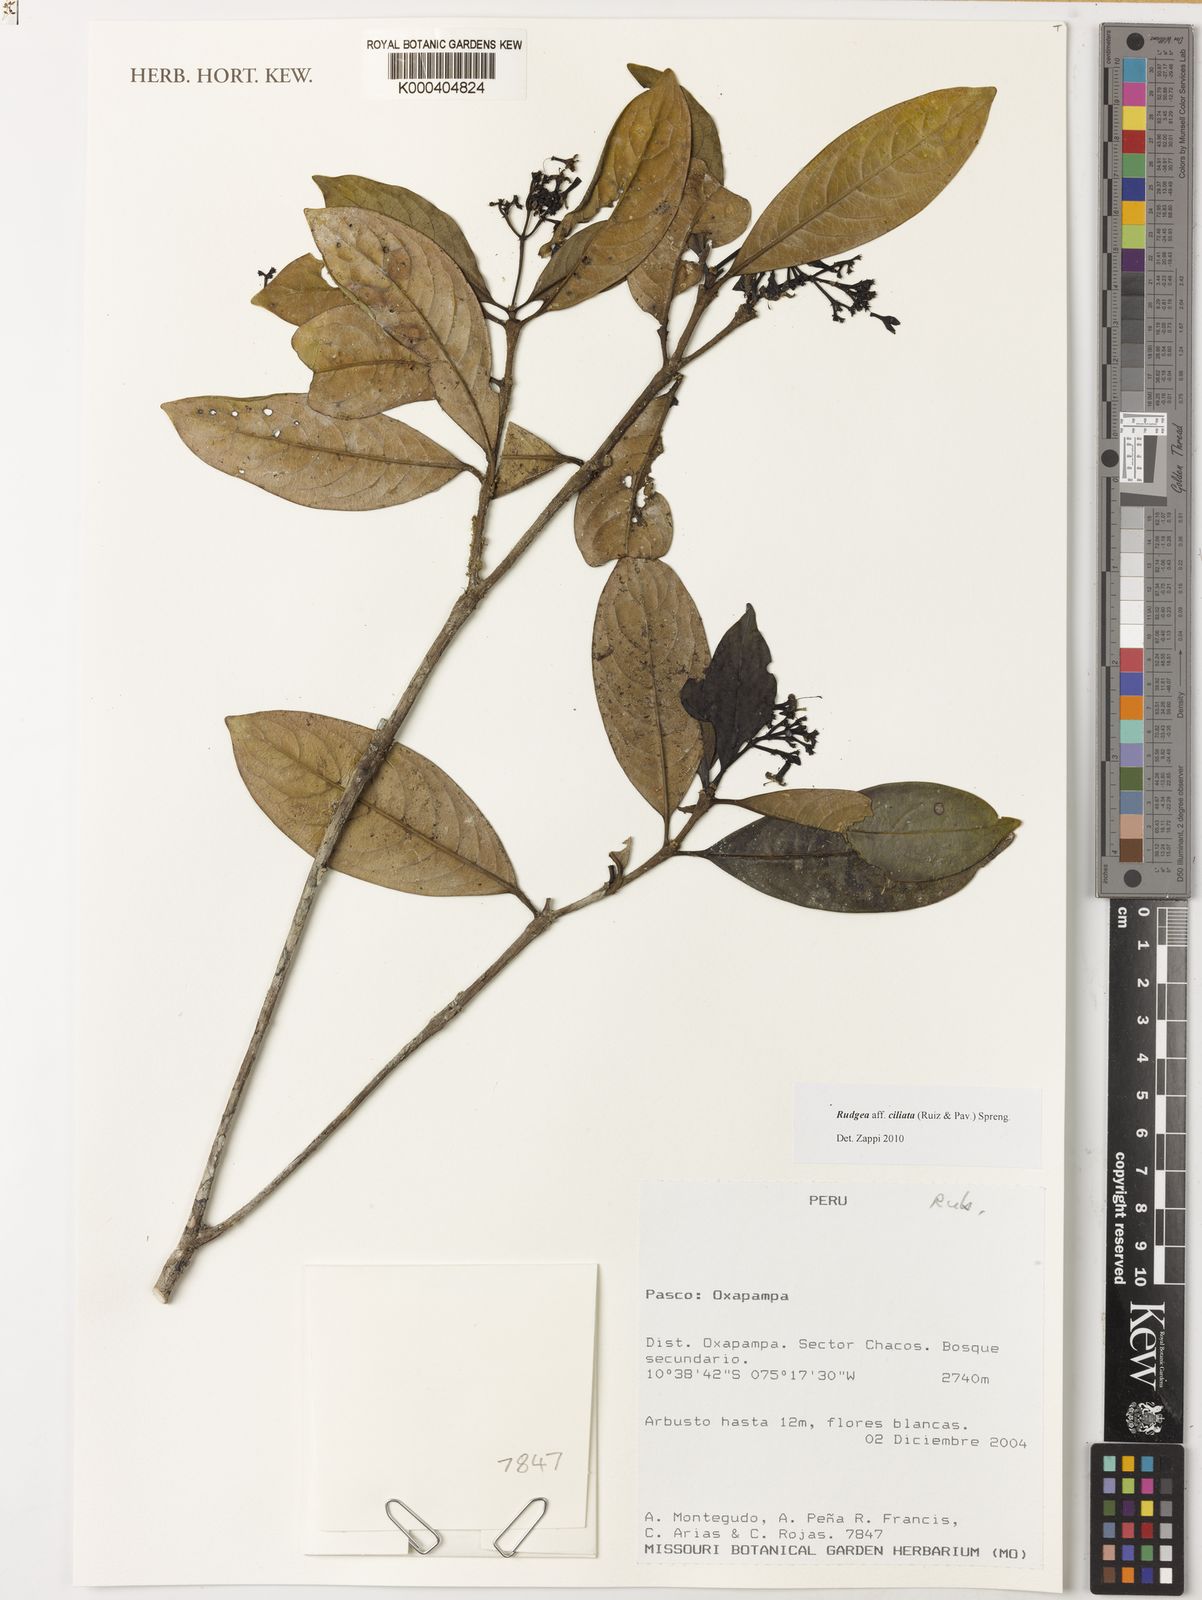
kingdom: Plantae
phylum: Tracheophyta
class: Magnoliopsida
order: Gentianales
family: Rubiaceae
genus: Rudgea
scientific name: Rudgea ciliata
